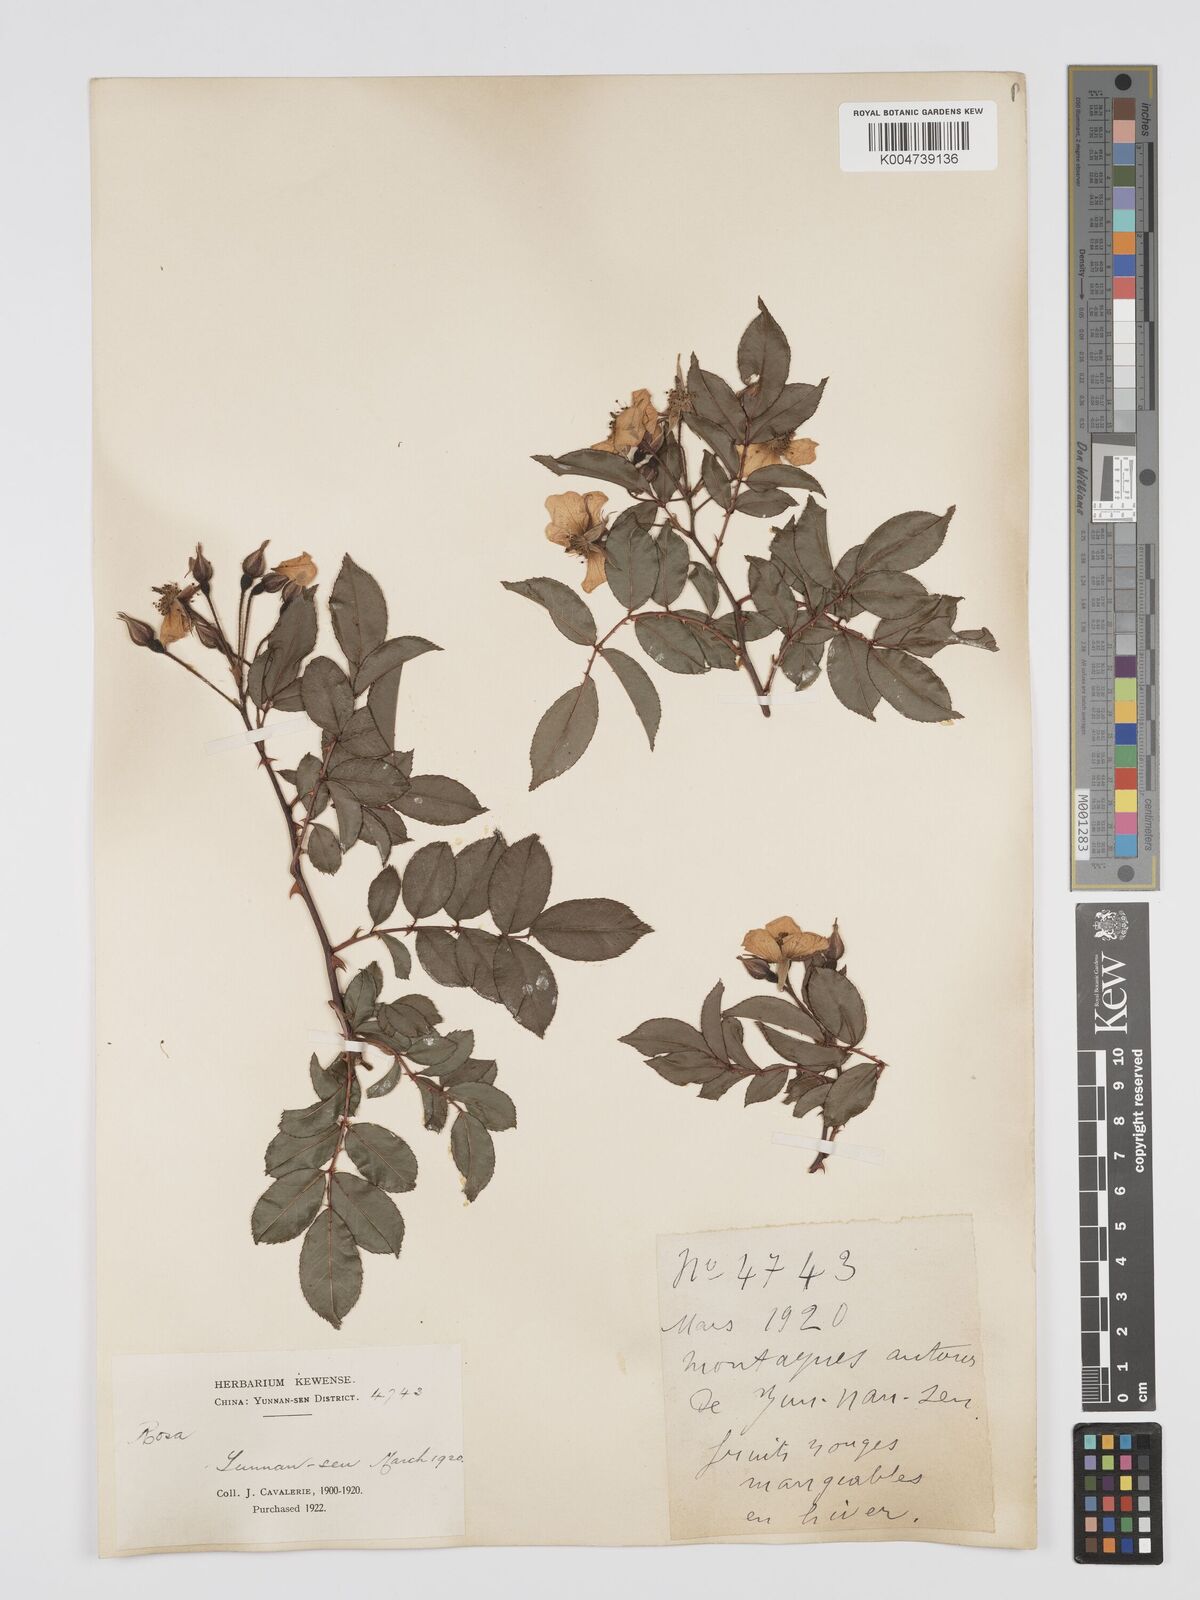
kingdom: Plantae
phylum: Tracheophyta
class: Magnoliopsida
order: Rosales
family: Rosaceae
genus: Rosa
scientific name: Rosa longicuspis
